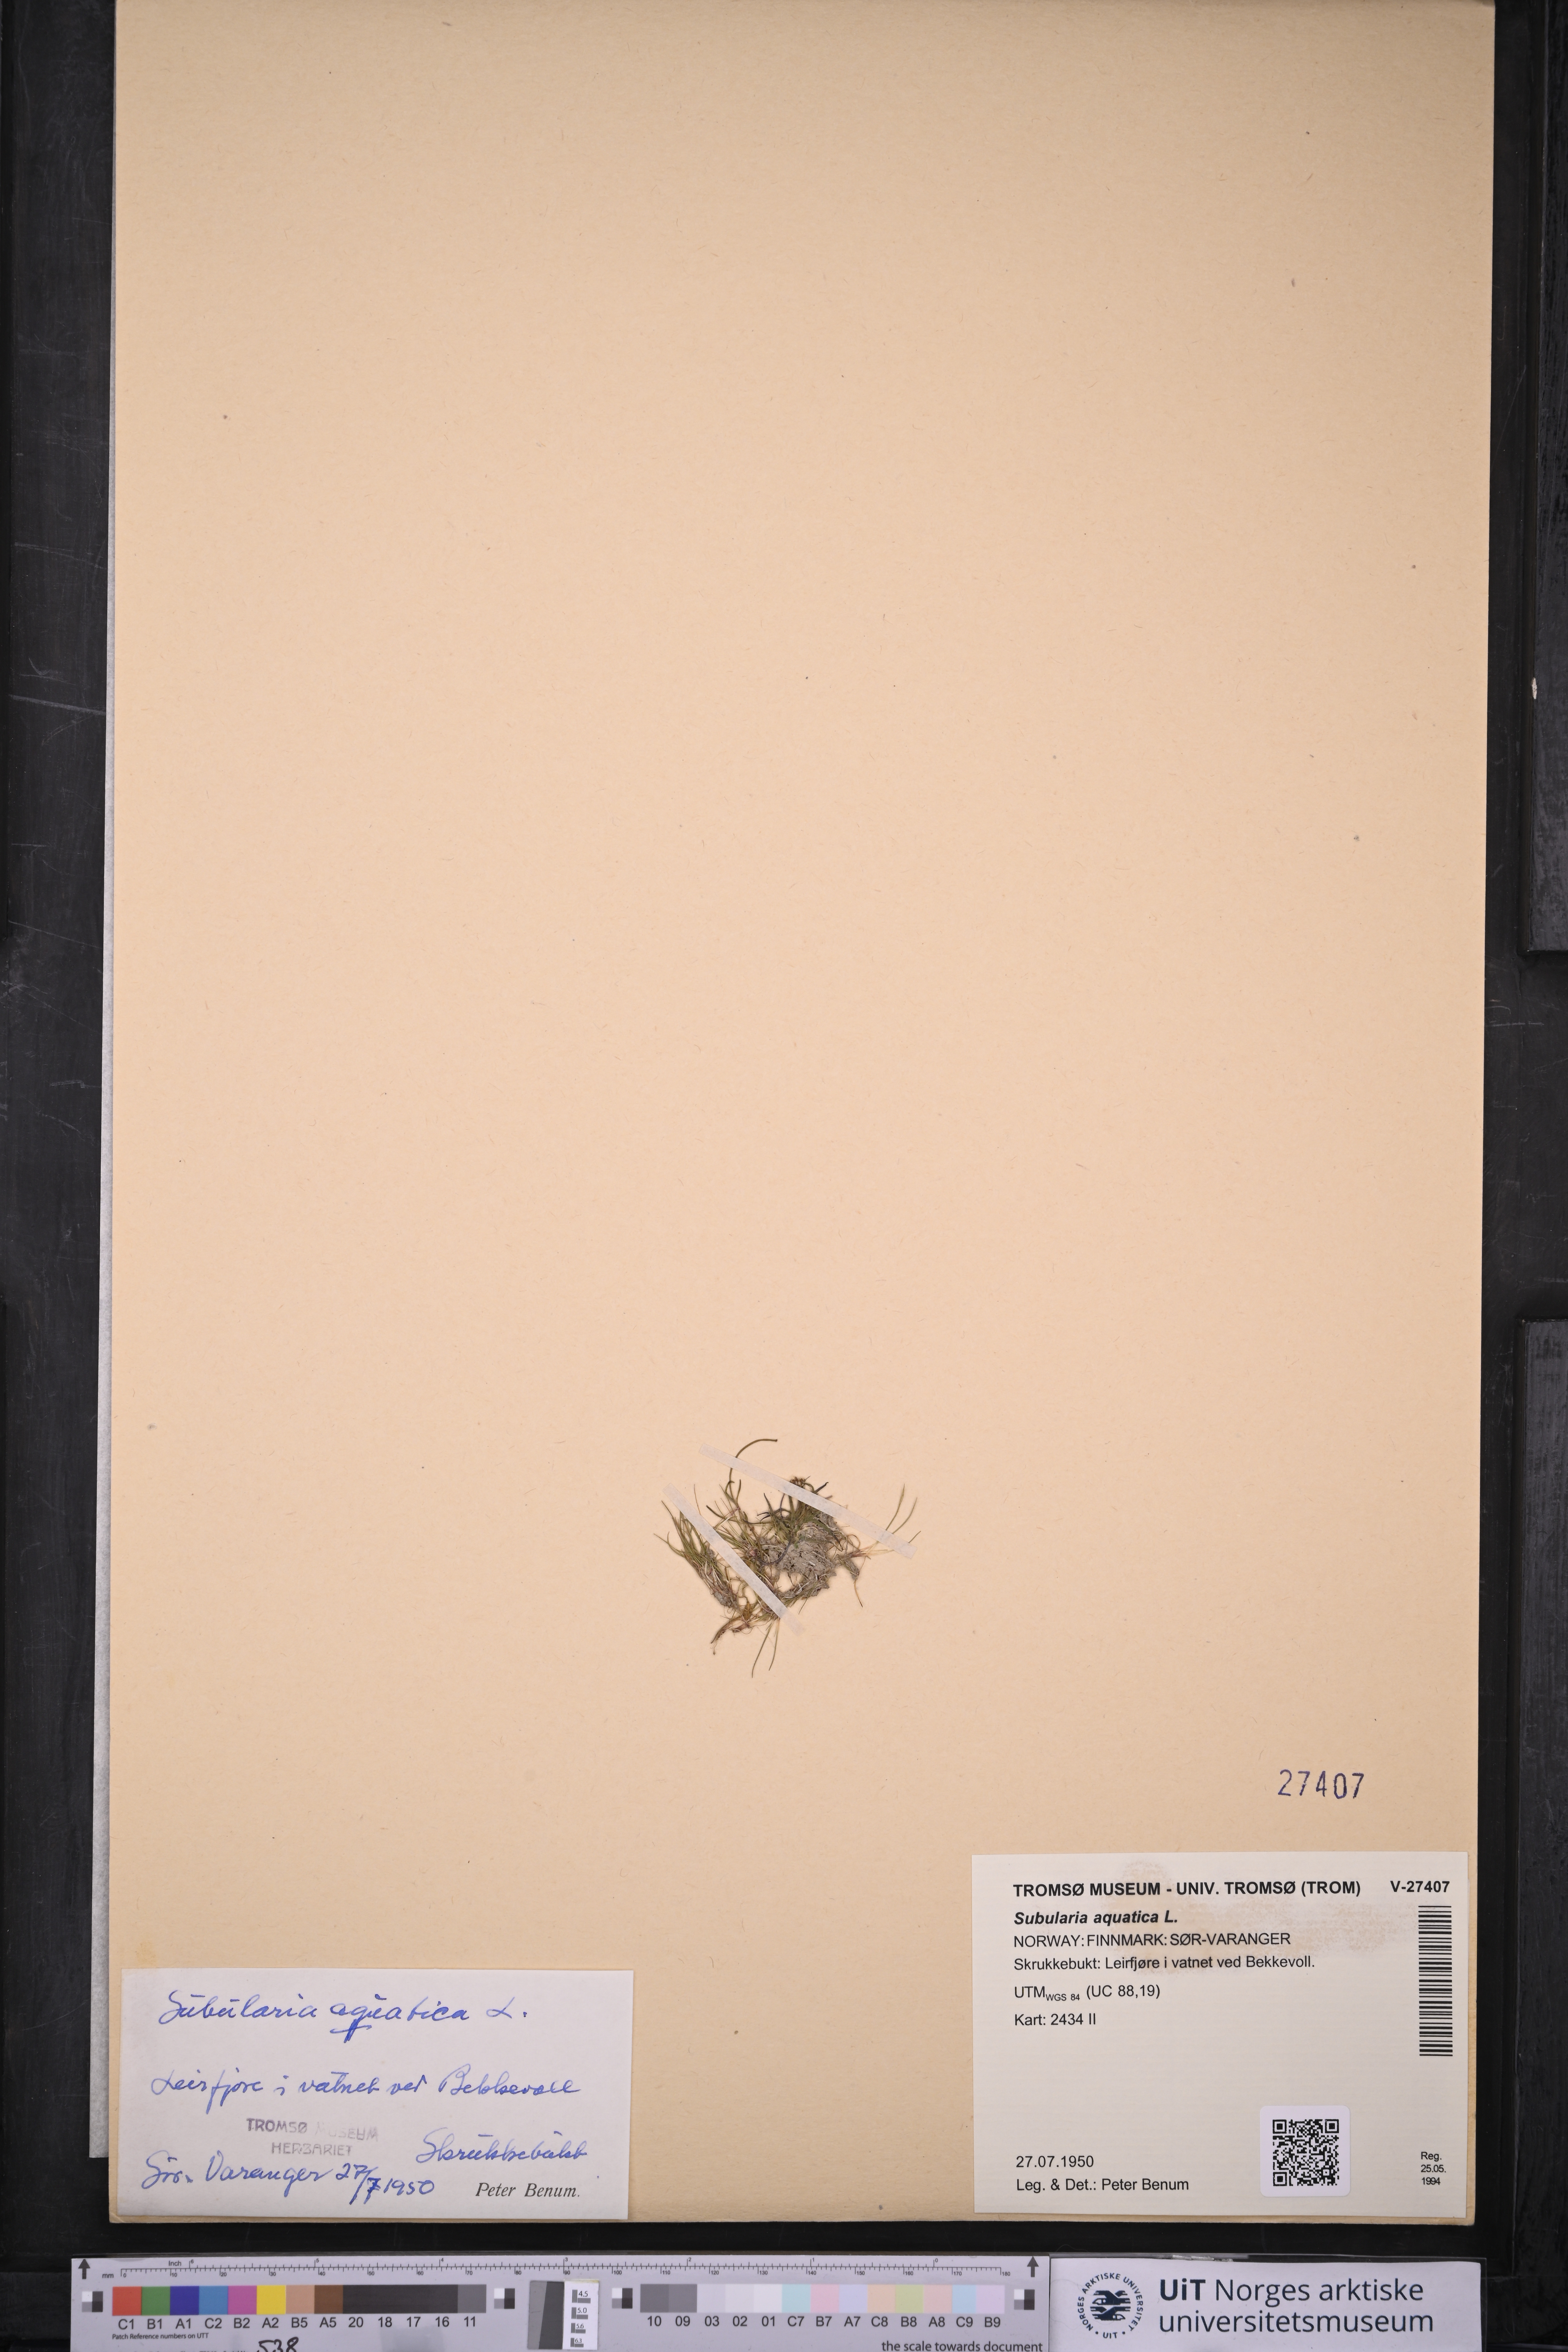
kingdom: Plantae
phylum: Tracheophyta
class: Magnoliopsida
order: Brassicales
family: Brassicaceae
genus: Subularia
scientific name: Subularia aquatica
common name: Awlwort
